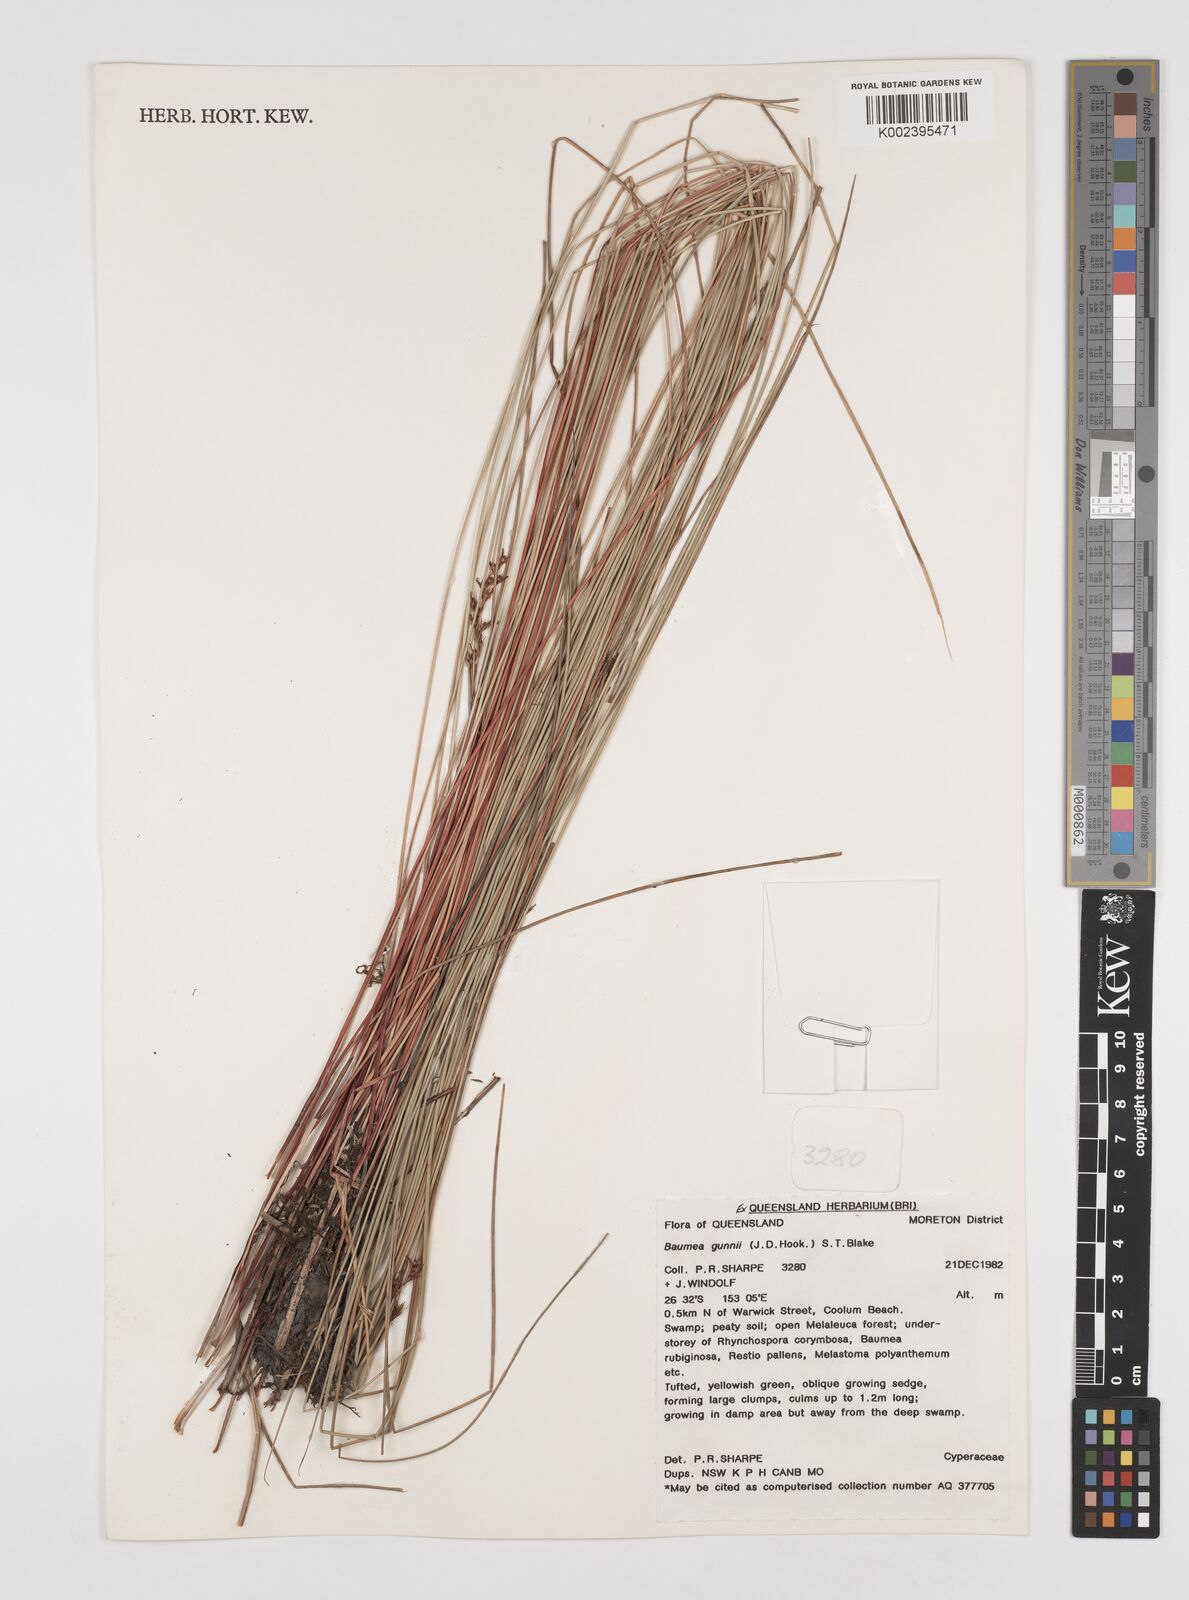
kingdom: Plantae
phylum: Tracheophyta
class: Liliopsida
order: Poales
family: Cyperaceae
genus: Machaerina
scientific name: Machaerina gunnii
